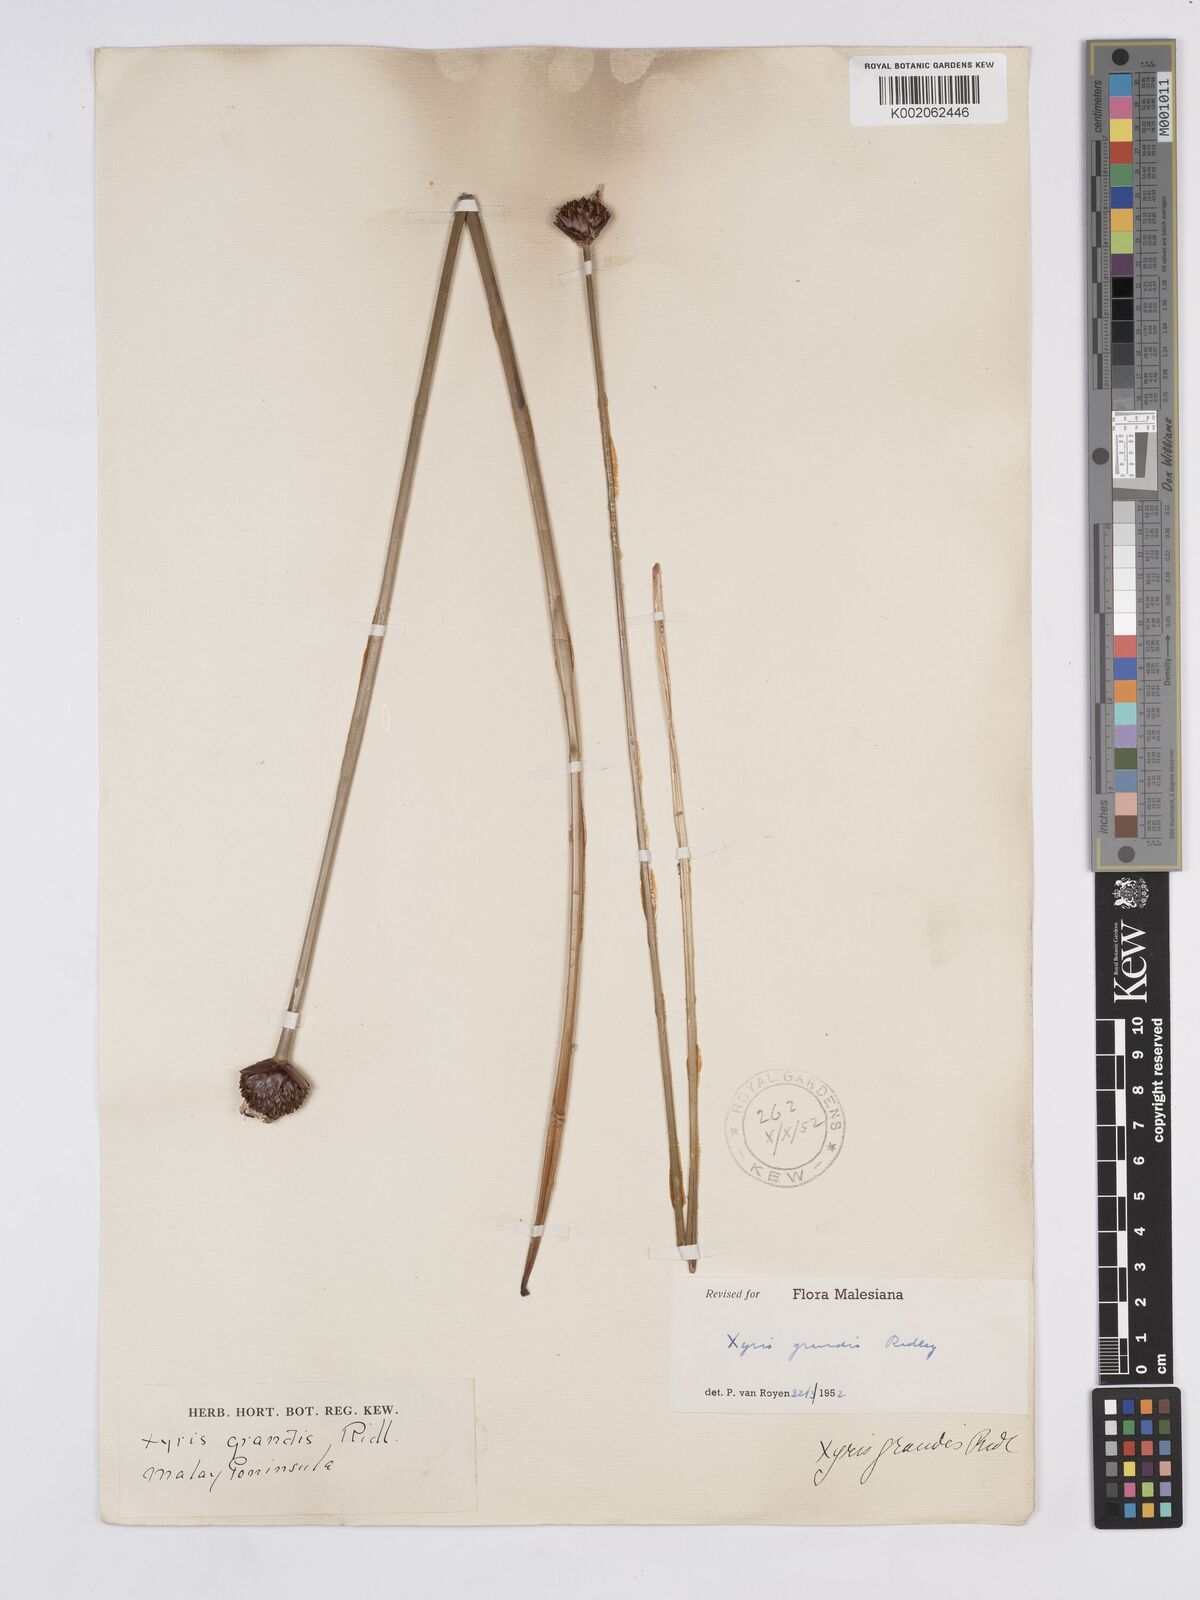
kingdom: Plantae
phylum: Tracheophyta
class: Liliopsida
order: Poales
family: Xyridaceae
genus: Xyris
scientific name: Xyris grandis
